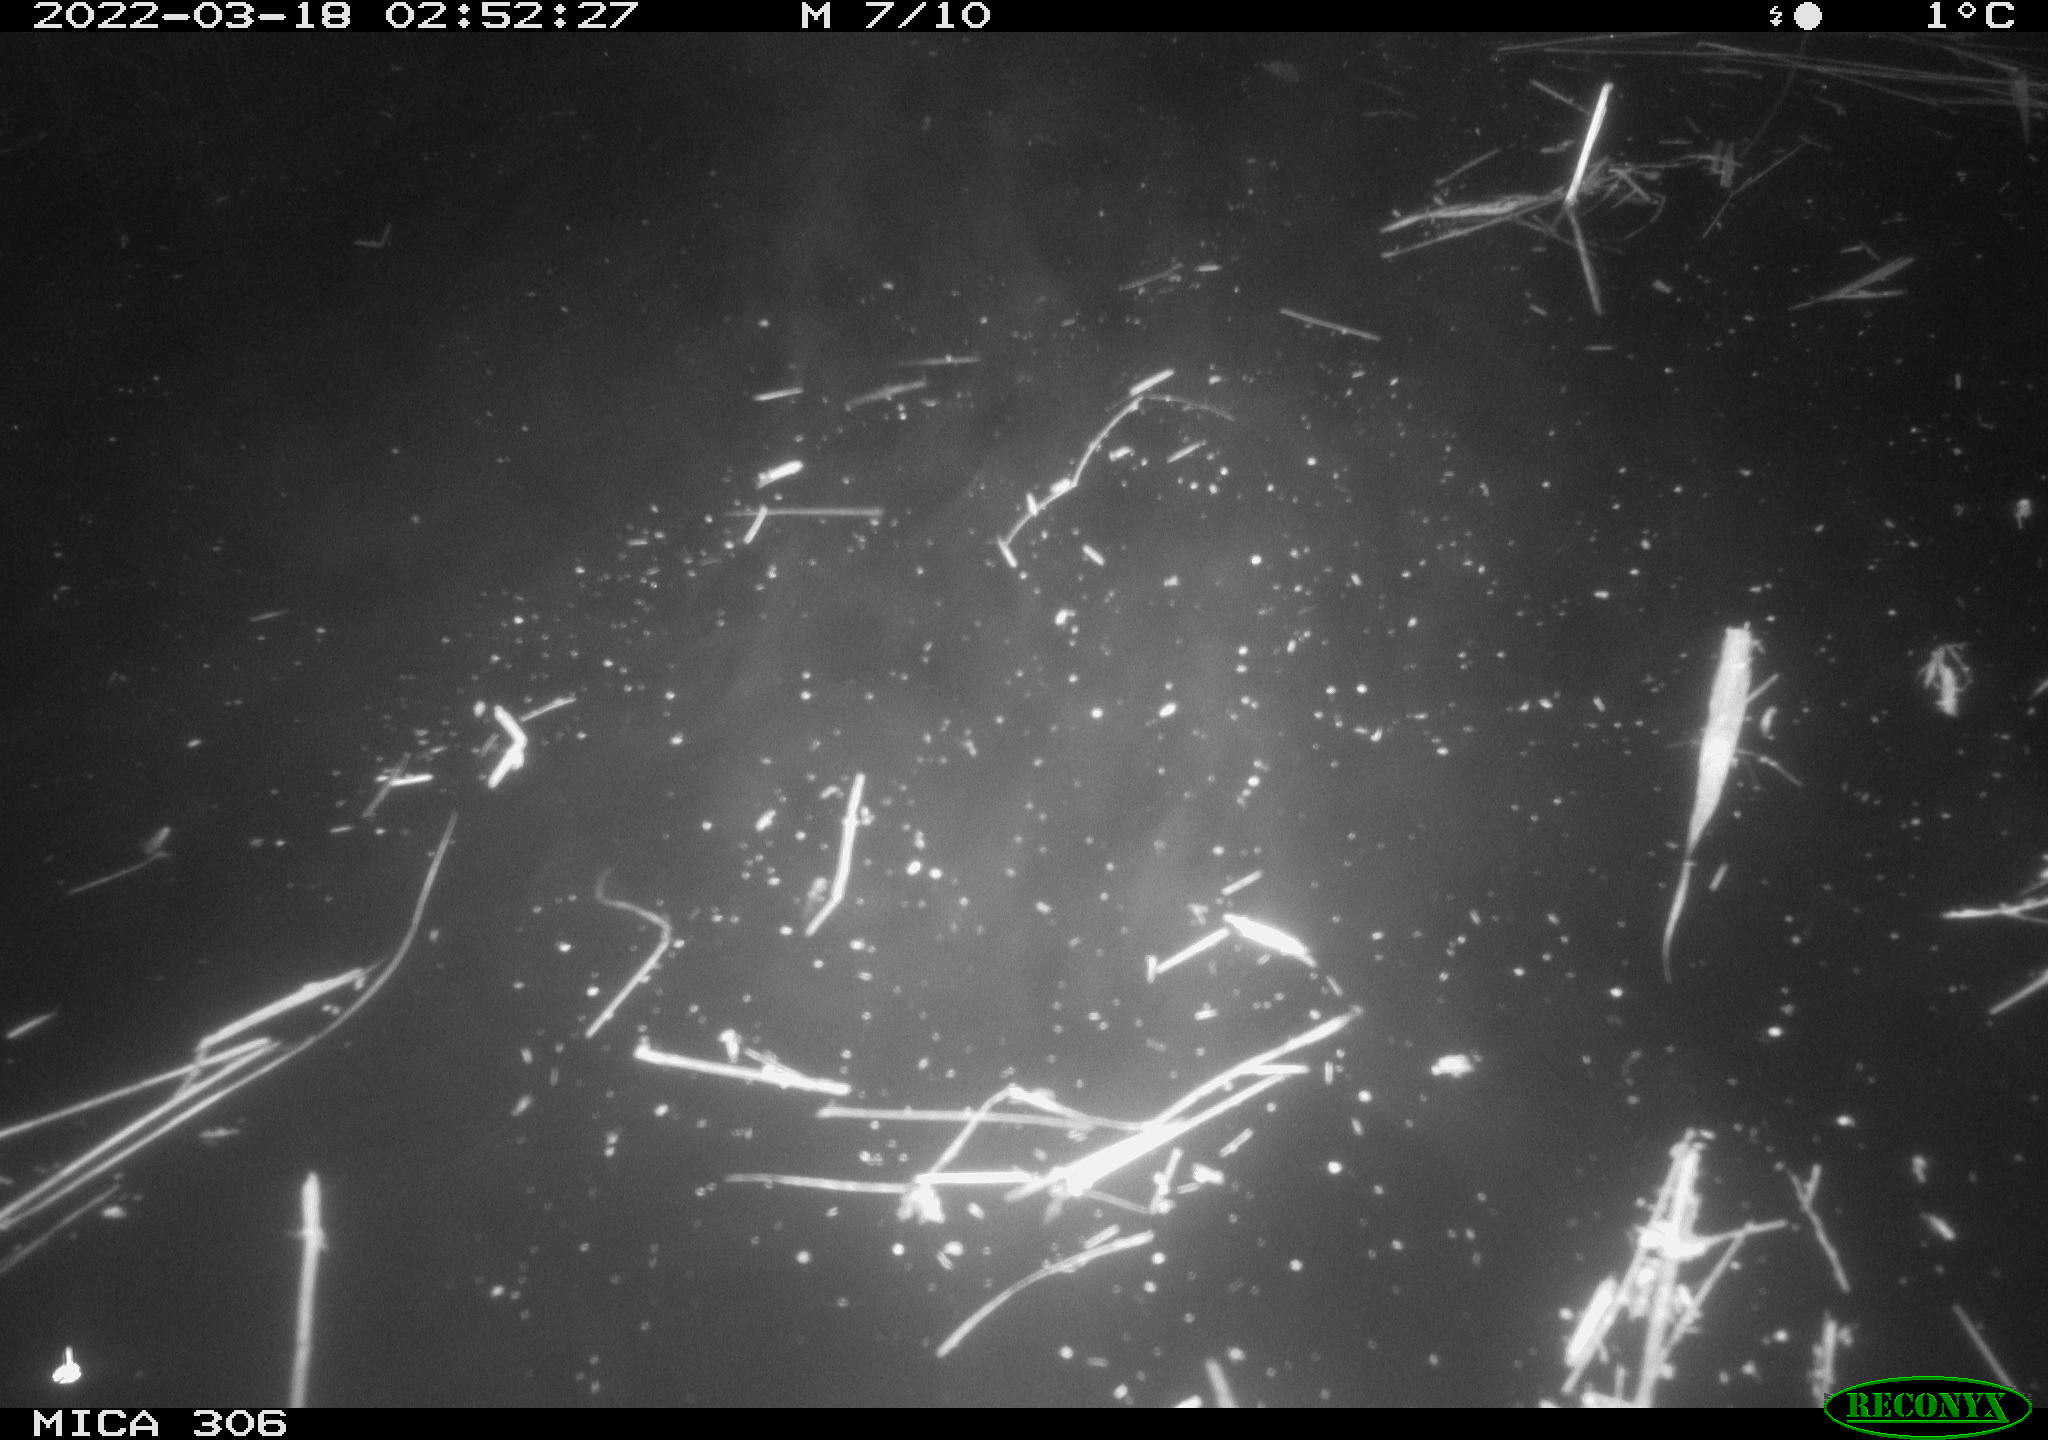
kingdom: Animalia
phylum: Chordata
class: Aves
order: Gruiformes
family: Rallidae
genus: Gallinula
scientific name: Gallinula chloropus
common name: Common moorhen
